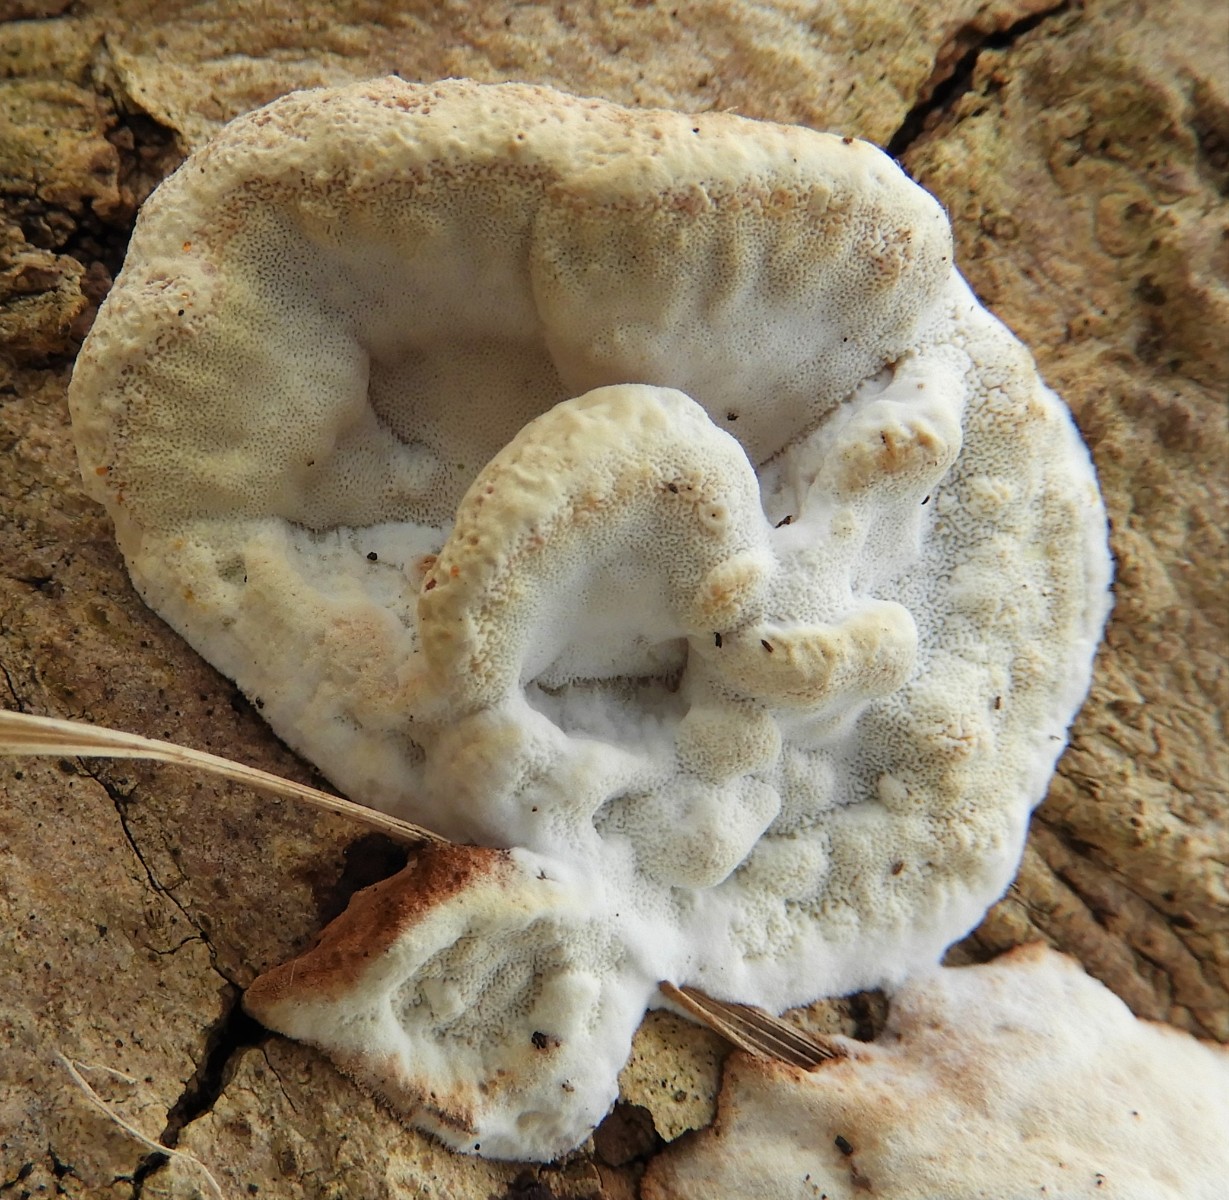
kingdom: Fungi
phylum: Basidiomycota
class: Agaricomycetes
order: Polyporales
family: Incrustoporiaceae
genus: Skeletocutis
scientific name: Skeletocutis nemoralis
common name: stor krystalporesvamp
